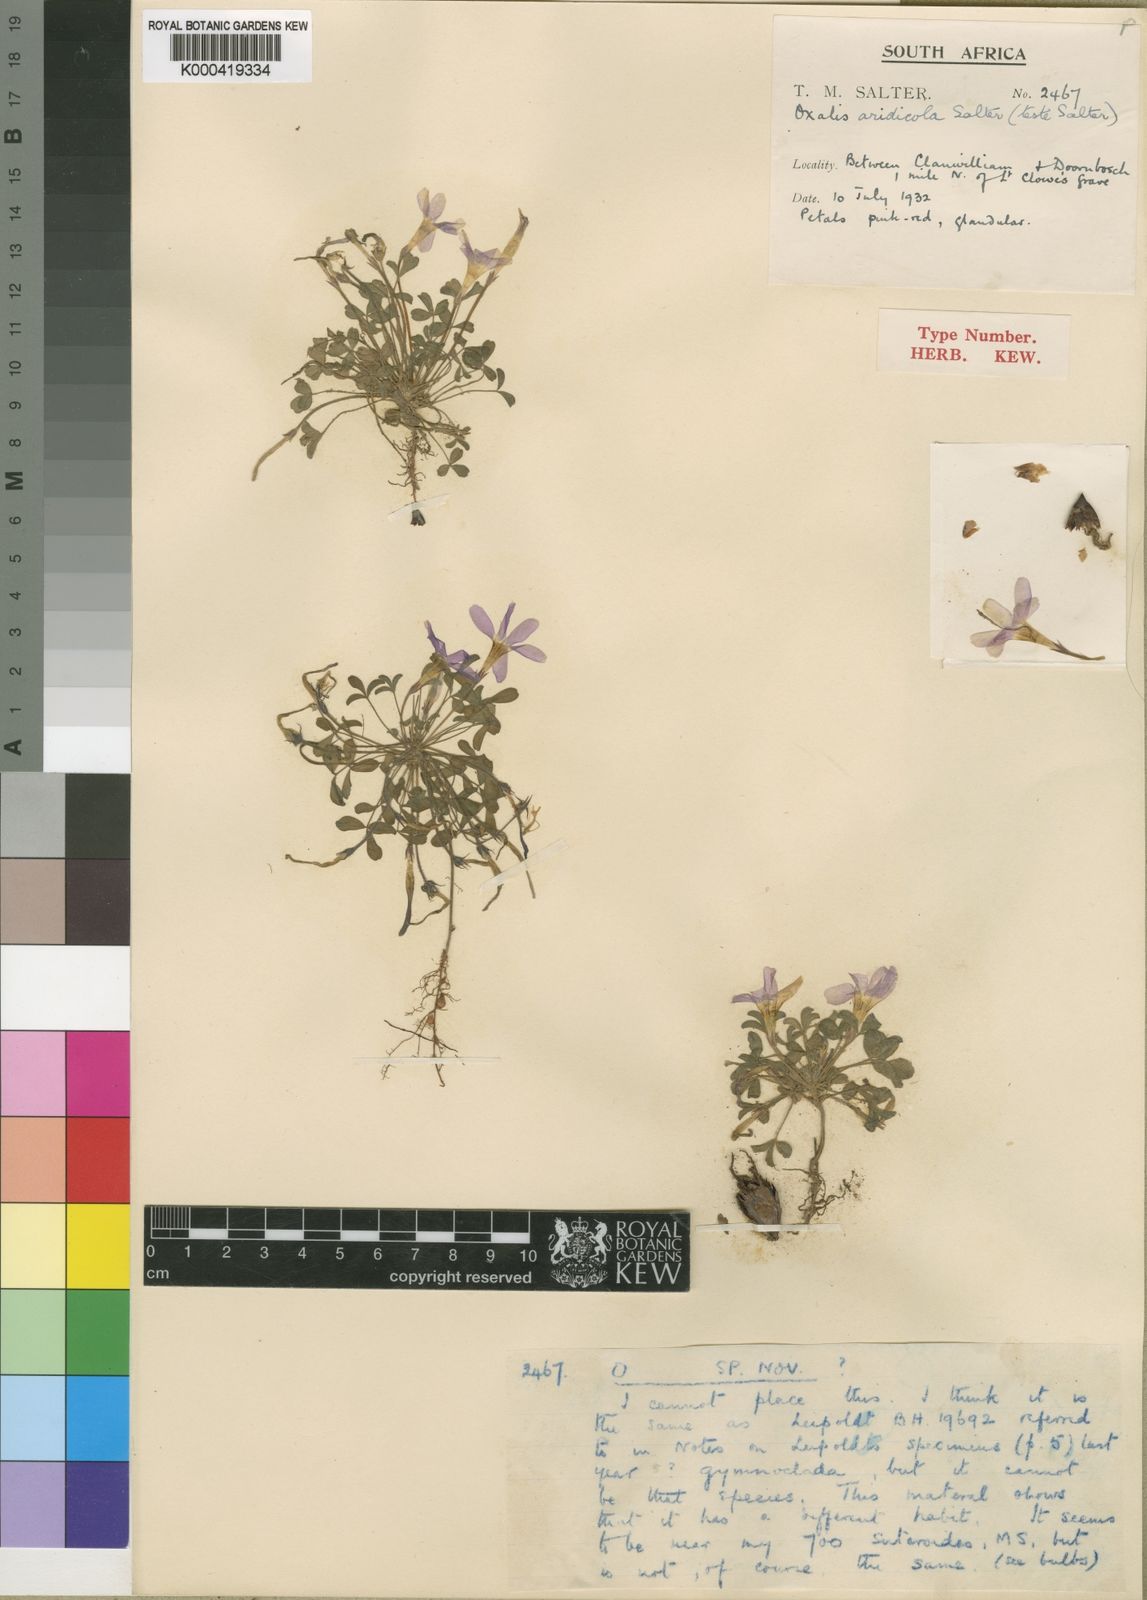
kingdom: Plantae
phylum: Tracheophyta
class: Magnoliopsida
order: Oxalidales
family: Oxalidaceae
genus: Oxalis
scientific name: Oxalis aridicola
